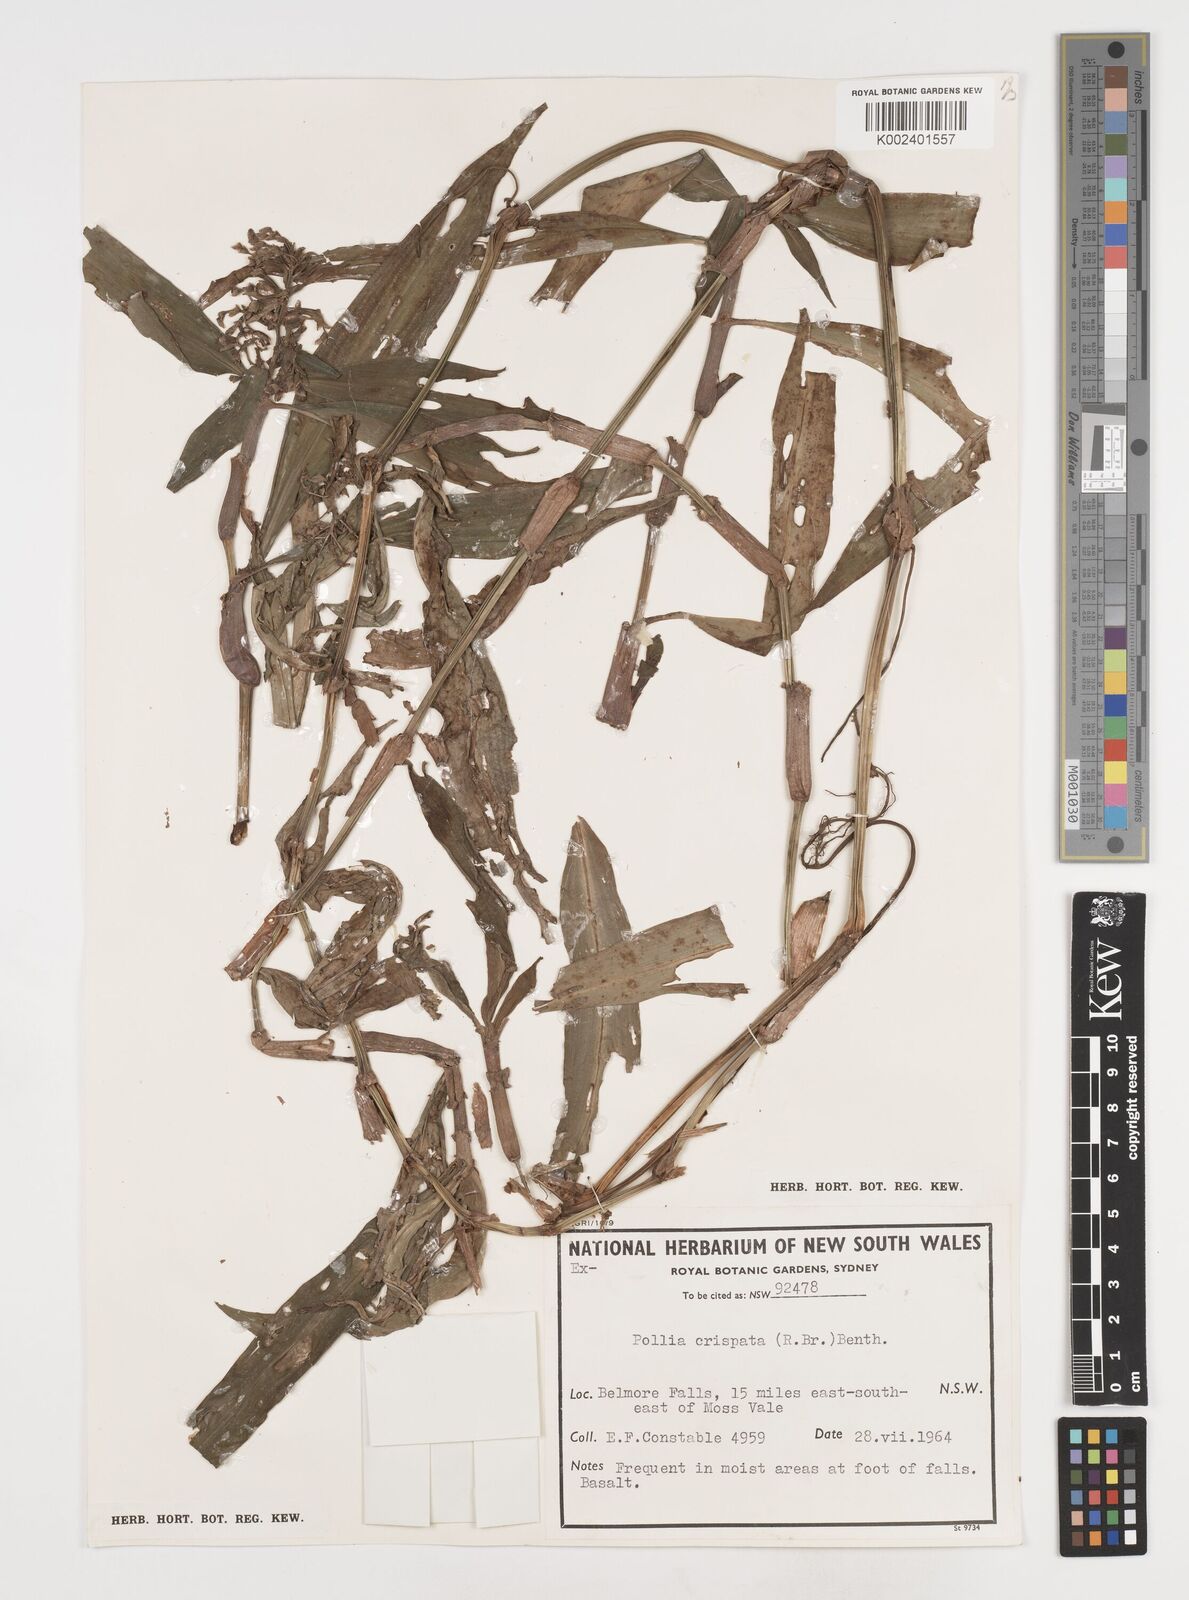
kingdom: Plantae
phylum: Tracheophyta
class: Liliopsida
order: Commelinales
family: Commelinaceae
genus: Pollia
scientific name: Pollia crispata
